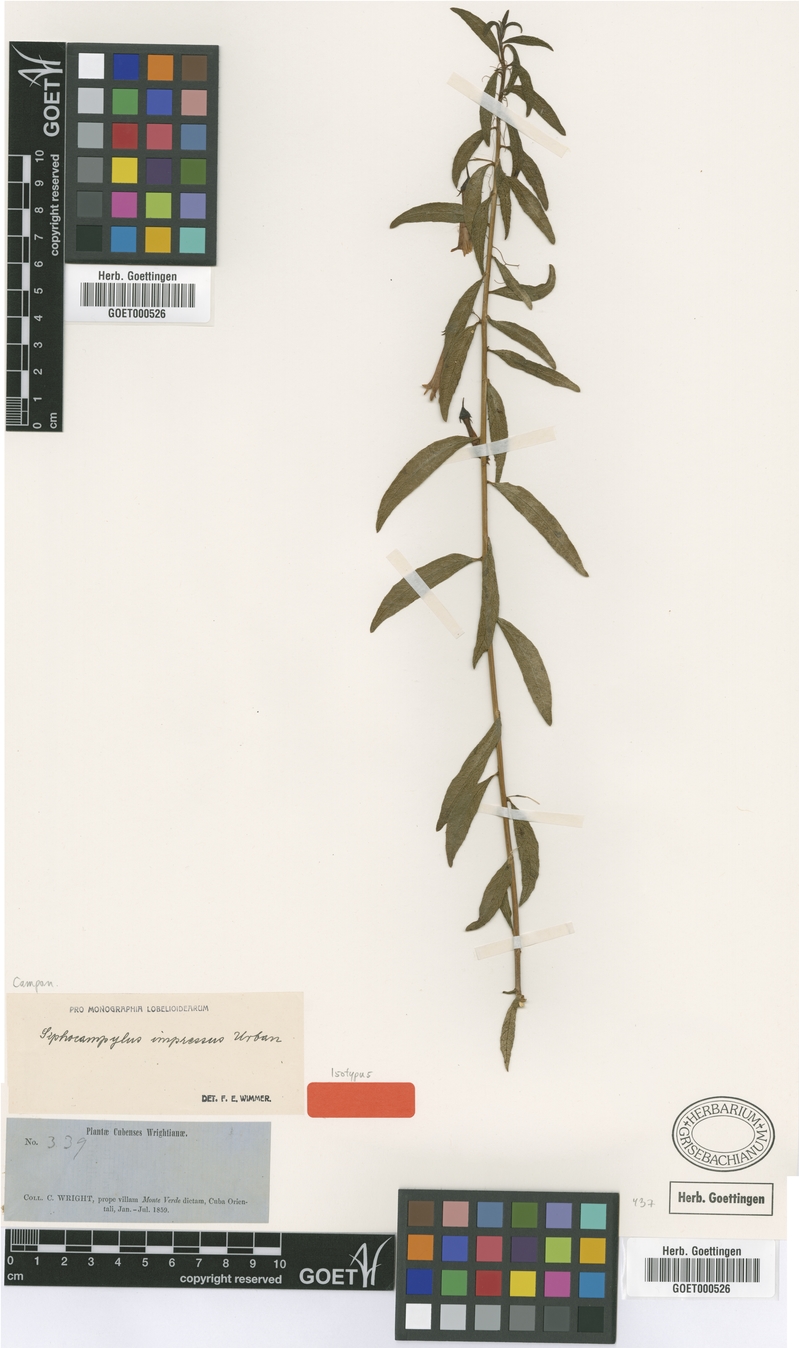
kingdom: Plantae
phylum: Tracheophyta
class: Magnoliopsida
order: Asterales
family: Campanulaceae
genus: Siphocampylus
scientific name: Siphocampylus manettiiflorus
